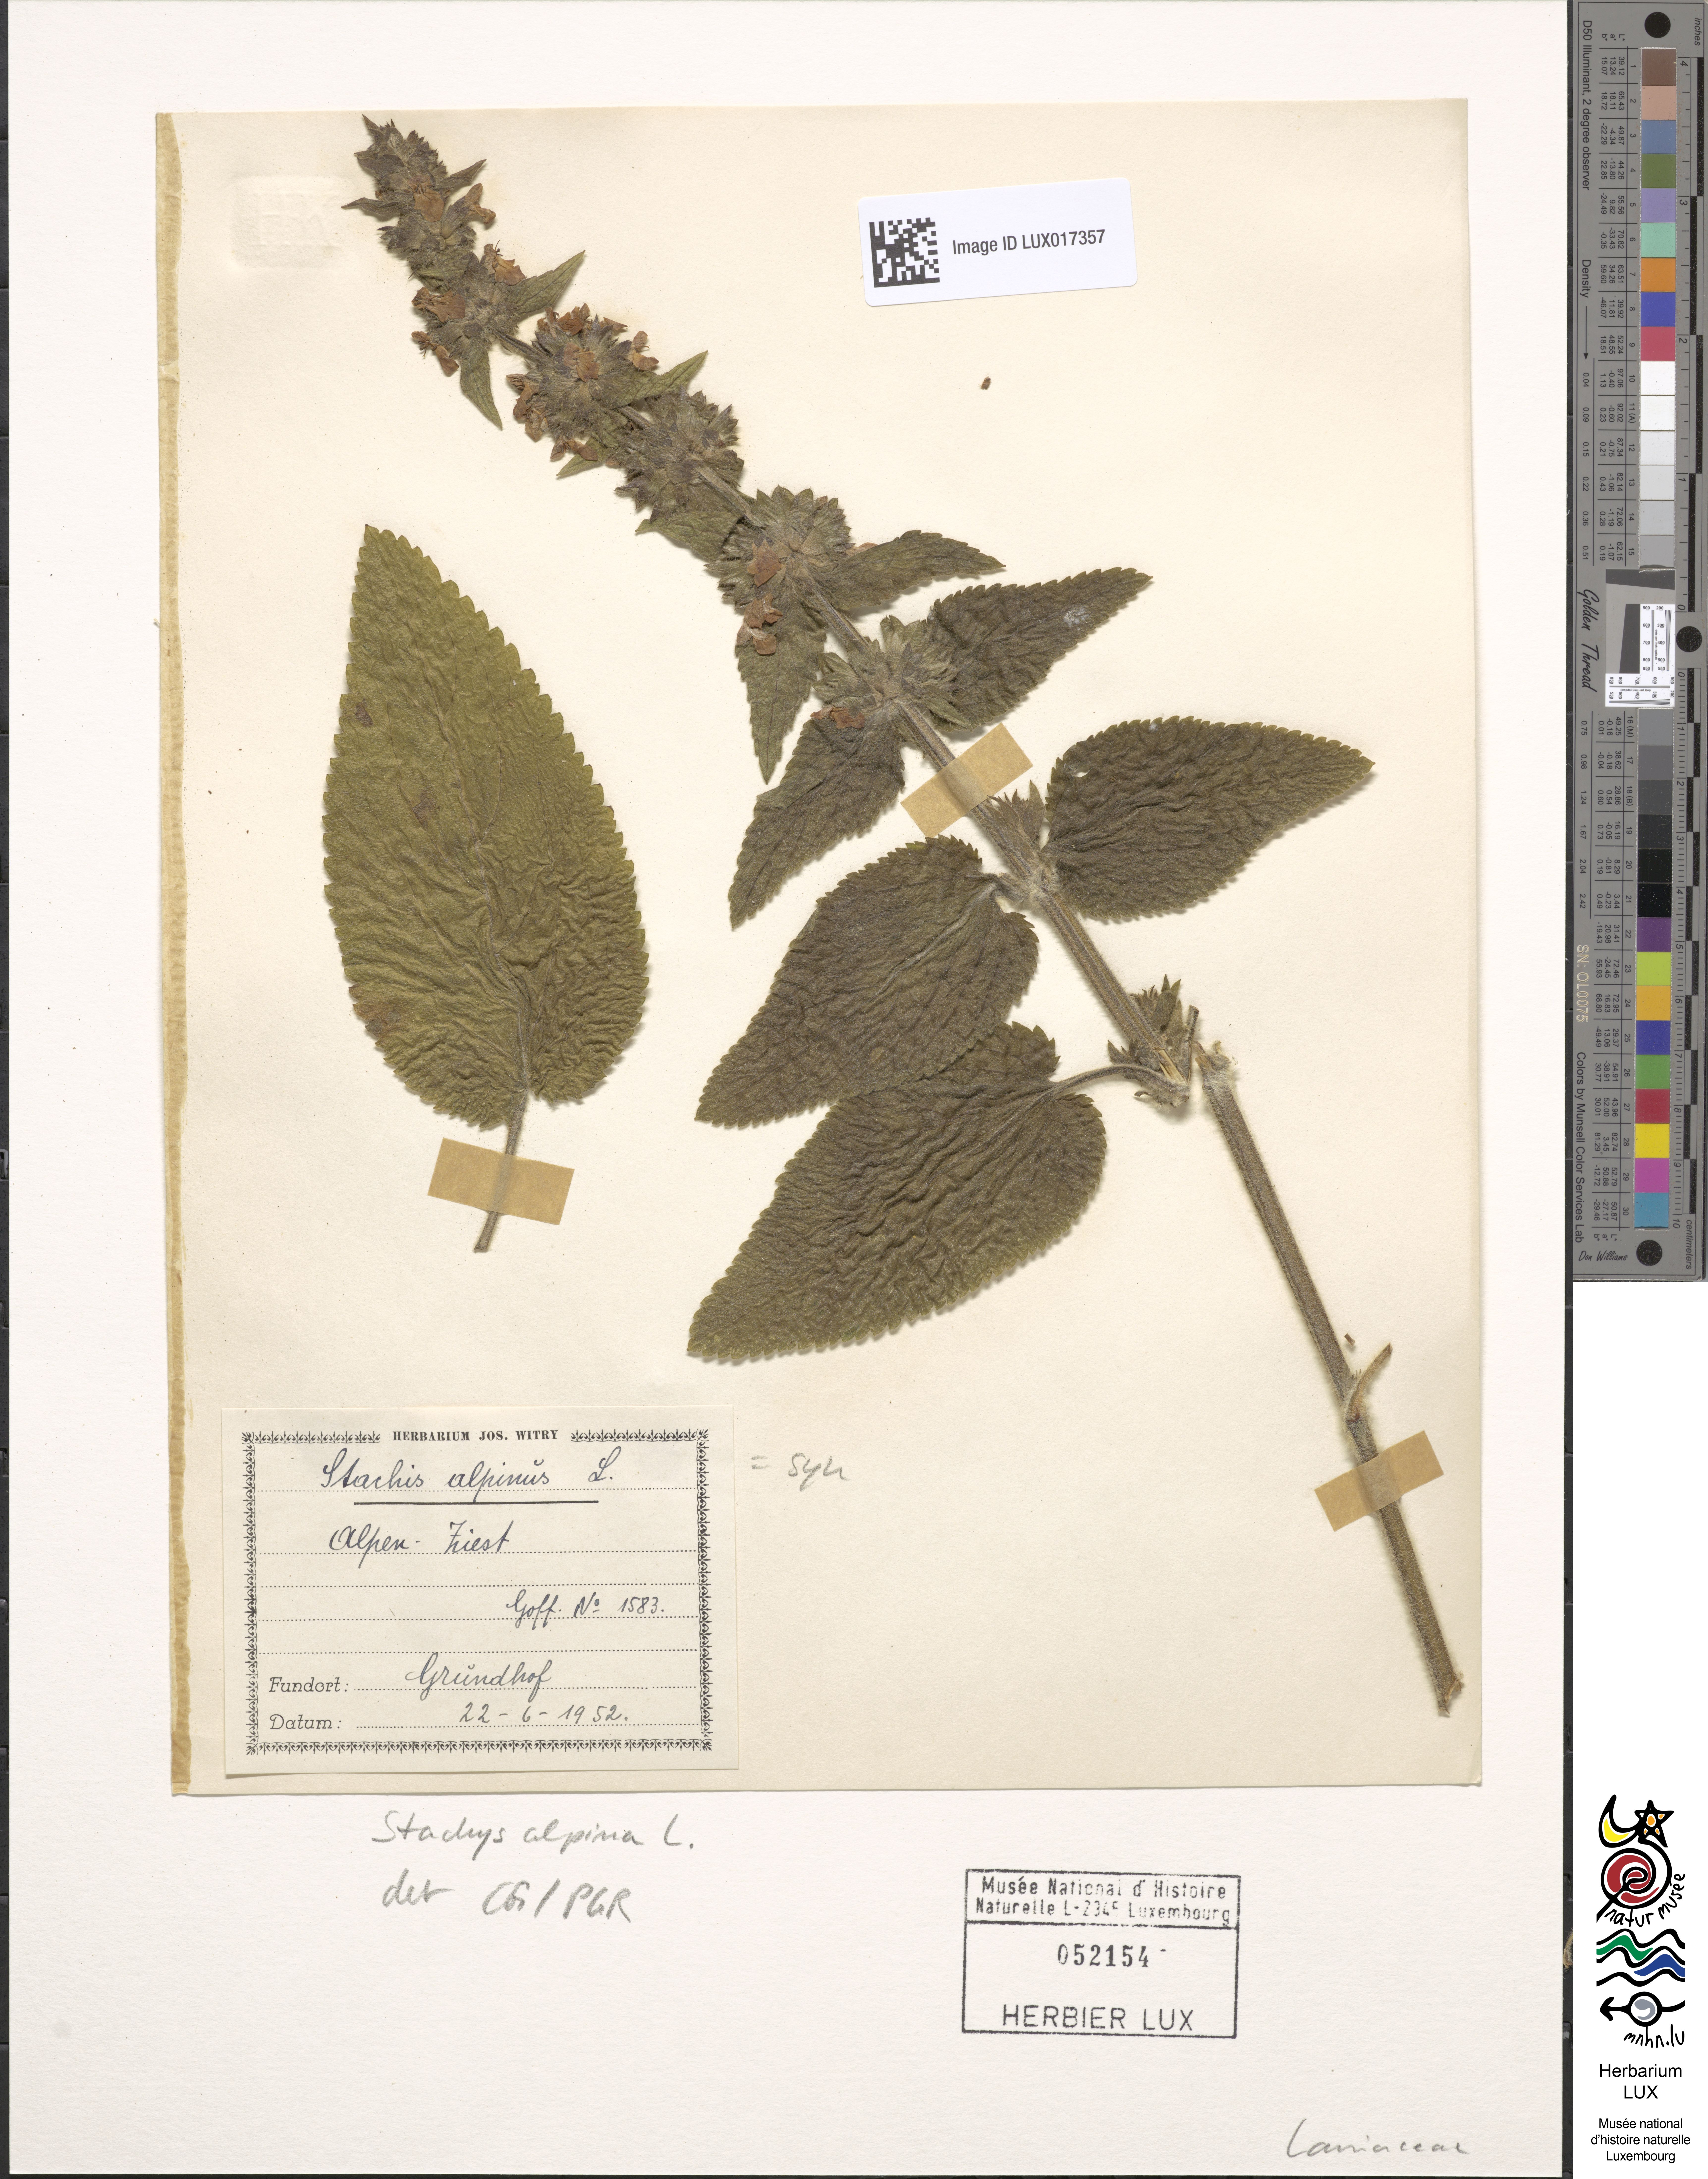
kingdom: Plantae
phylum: Tracheophyta
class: Magnoliopsida
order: Lamiales
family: Lamiaceae
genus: Stachys
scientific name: Stachys alpina
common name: Limestone woundwort
